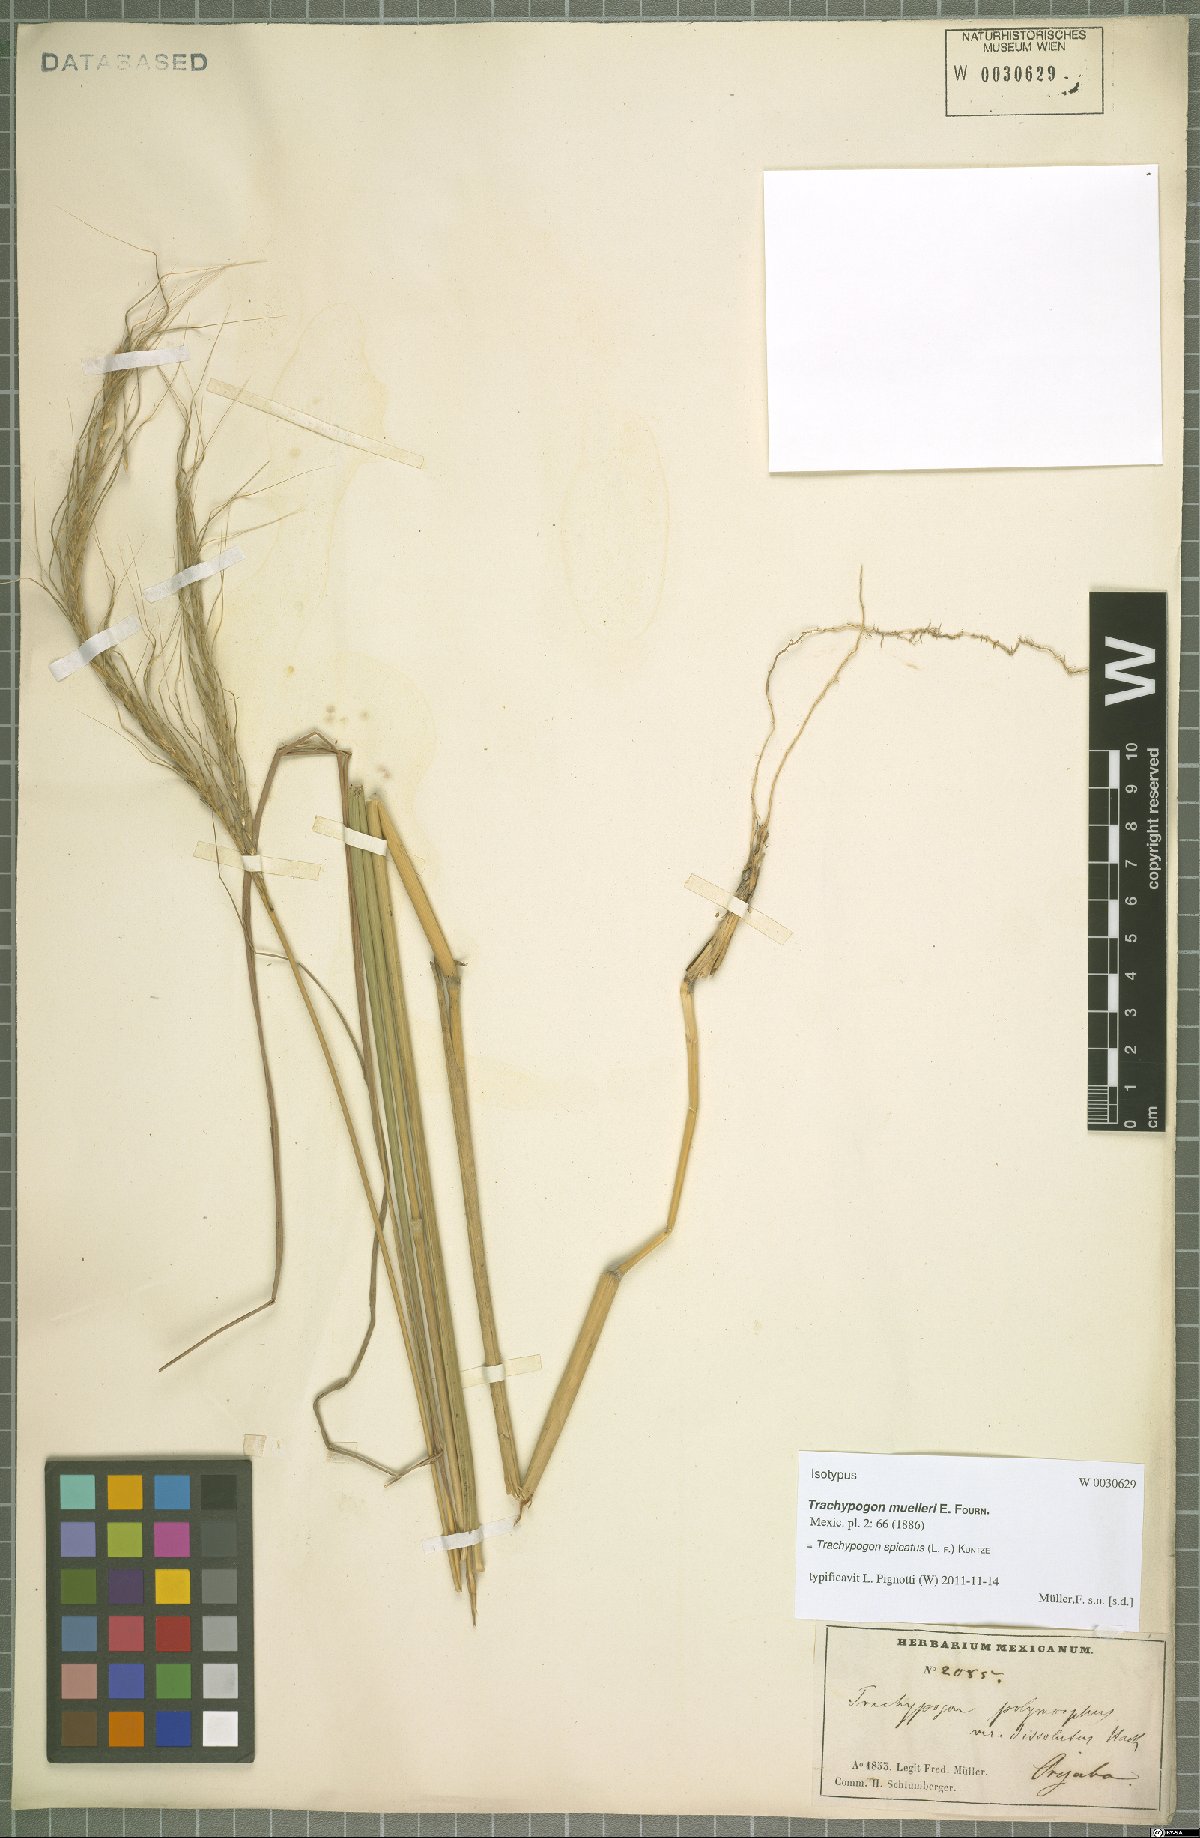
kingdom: Plantae
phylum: Tracheophyta
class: Liliopsida
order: Poales
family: Poaceae
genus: Trachypogon
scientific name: Trachypogon spicatus
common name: Crinkle-awn
